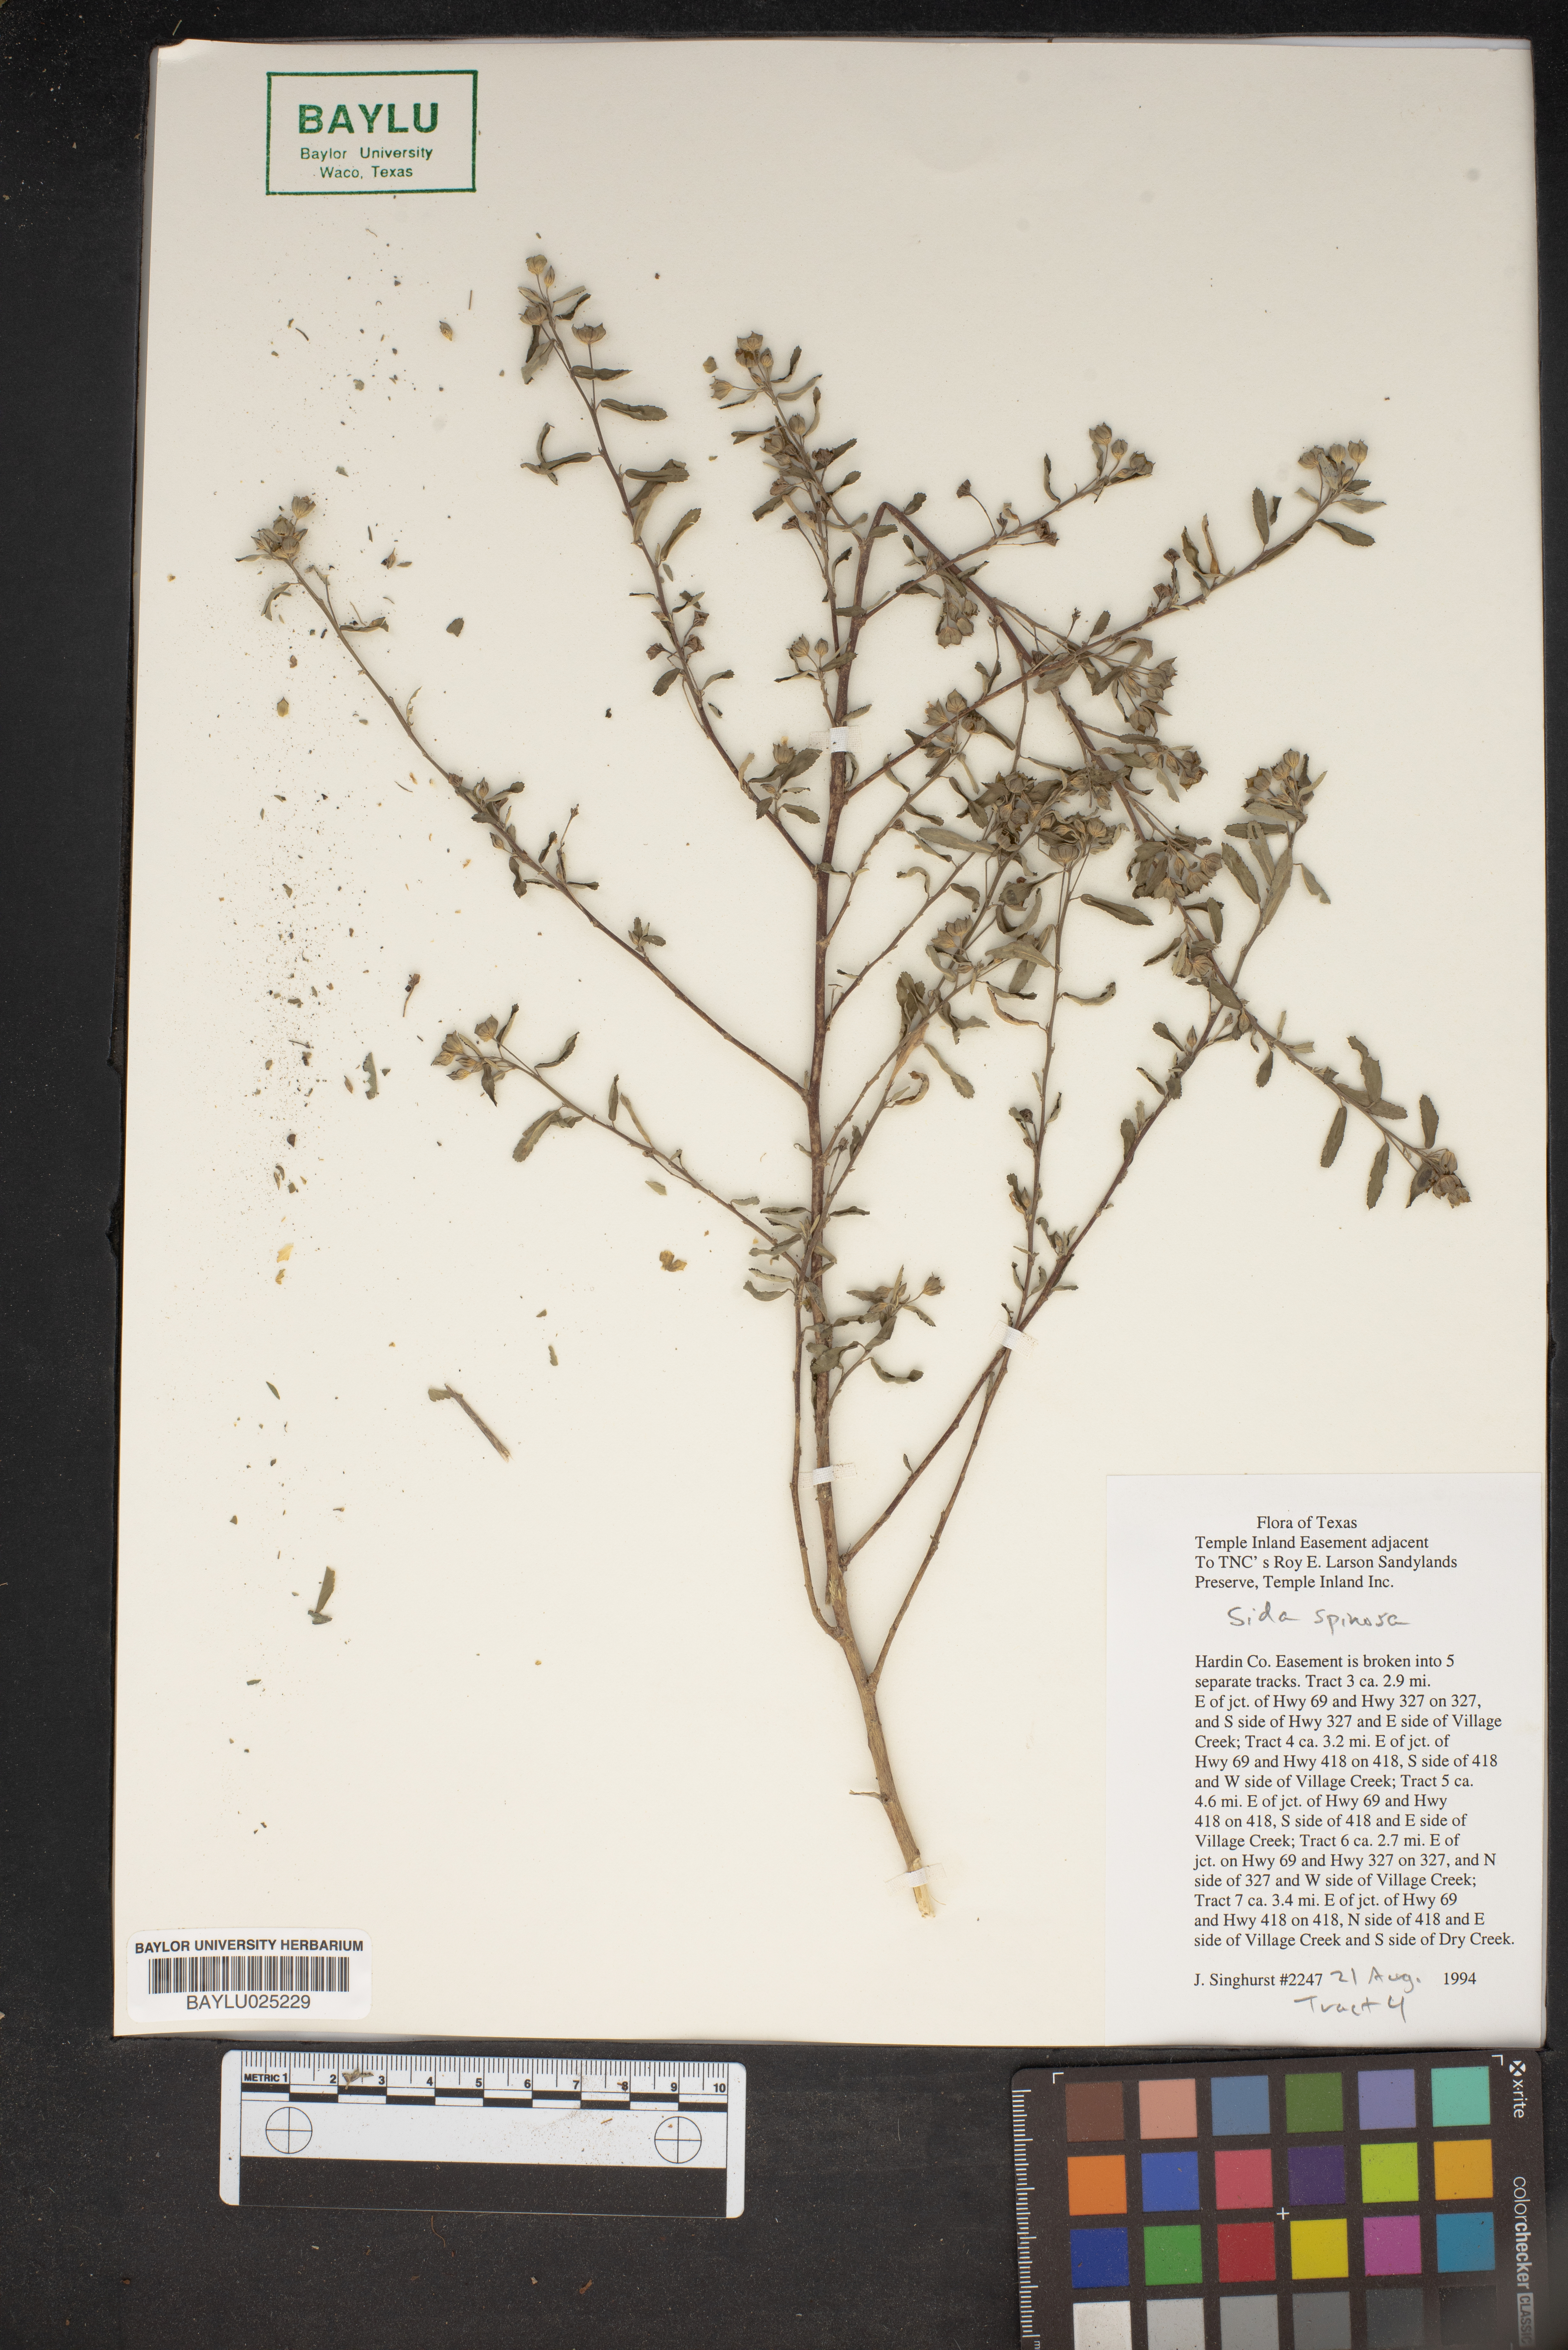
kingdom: Plantae
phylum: Tracheophyta
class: Magnoliopsida
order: Malvales
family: Malvaceae
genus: Sida
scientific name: Sida spinosa
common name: Prickly fanpetals
